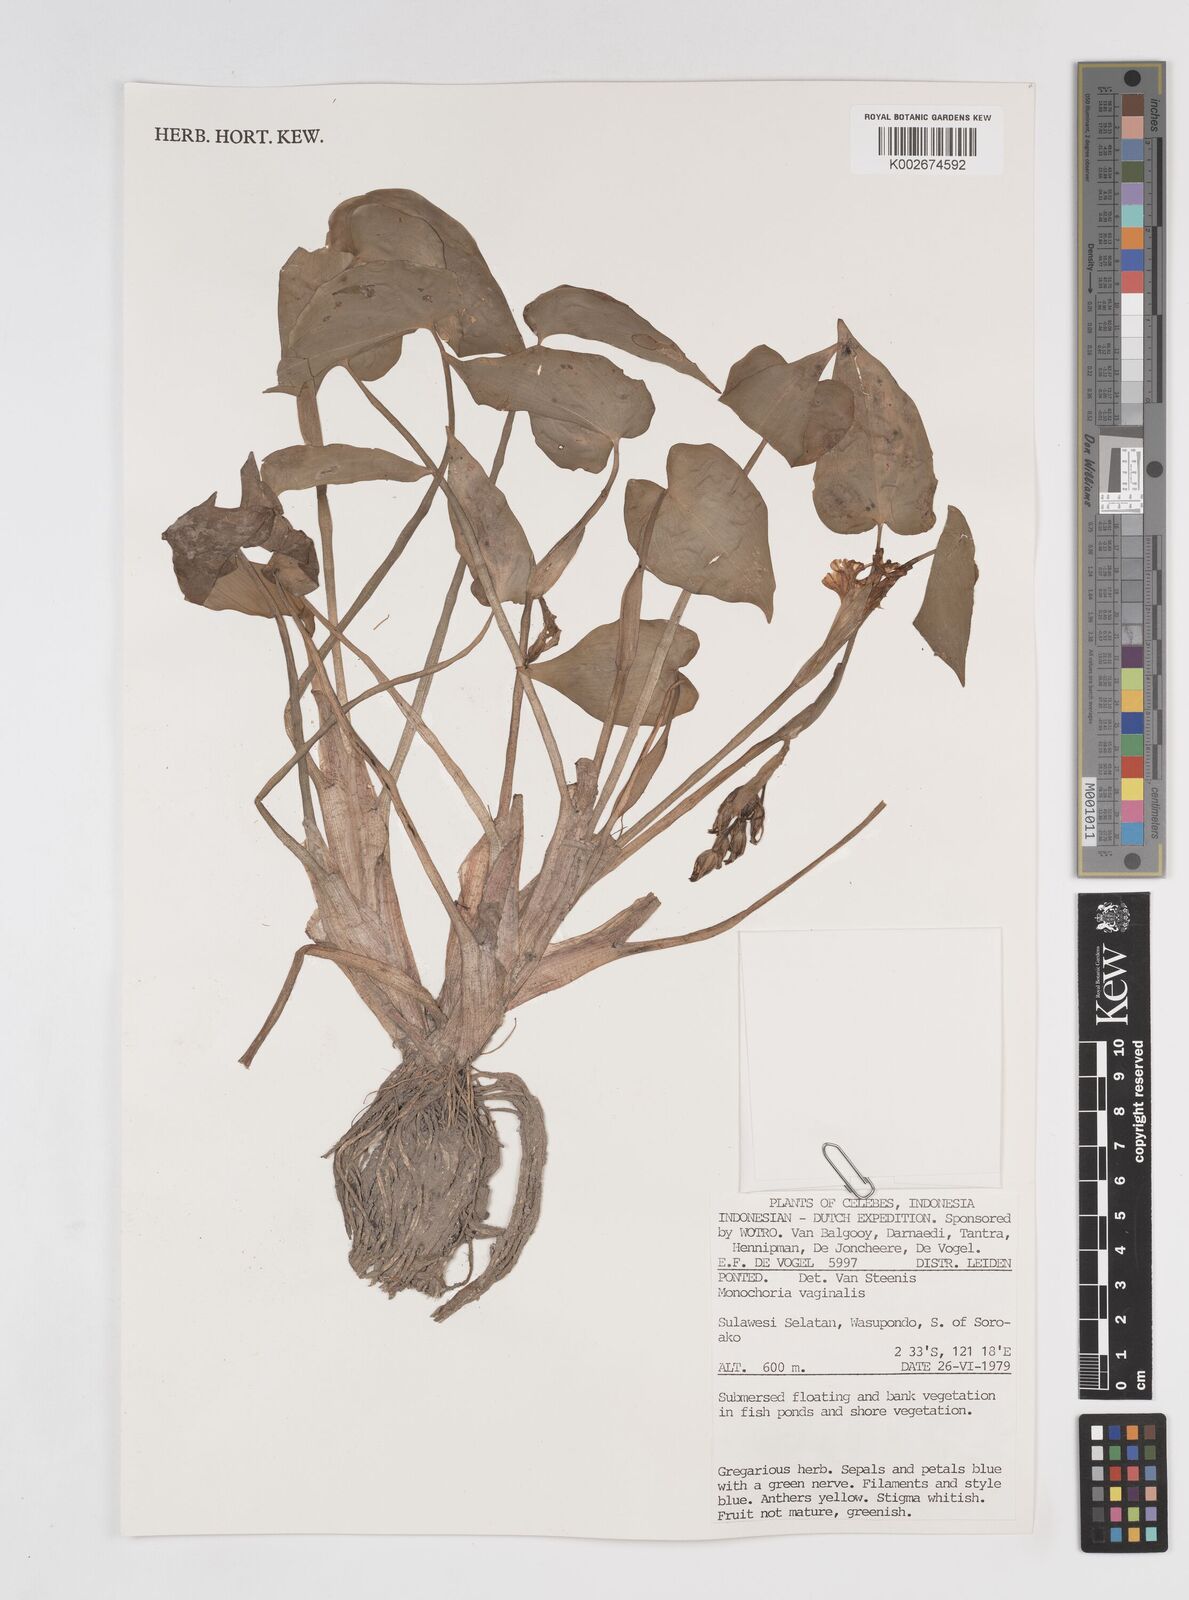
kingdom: Plantae
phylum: Tracheophyta
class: Liliopsida
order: Commelinales
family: Pontederiaceae
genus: Pontederia
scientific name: Pontederia vaginalis
